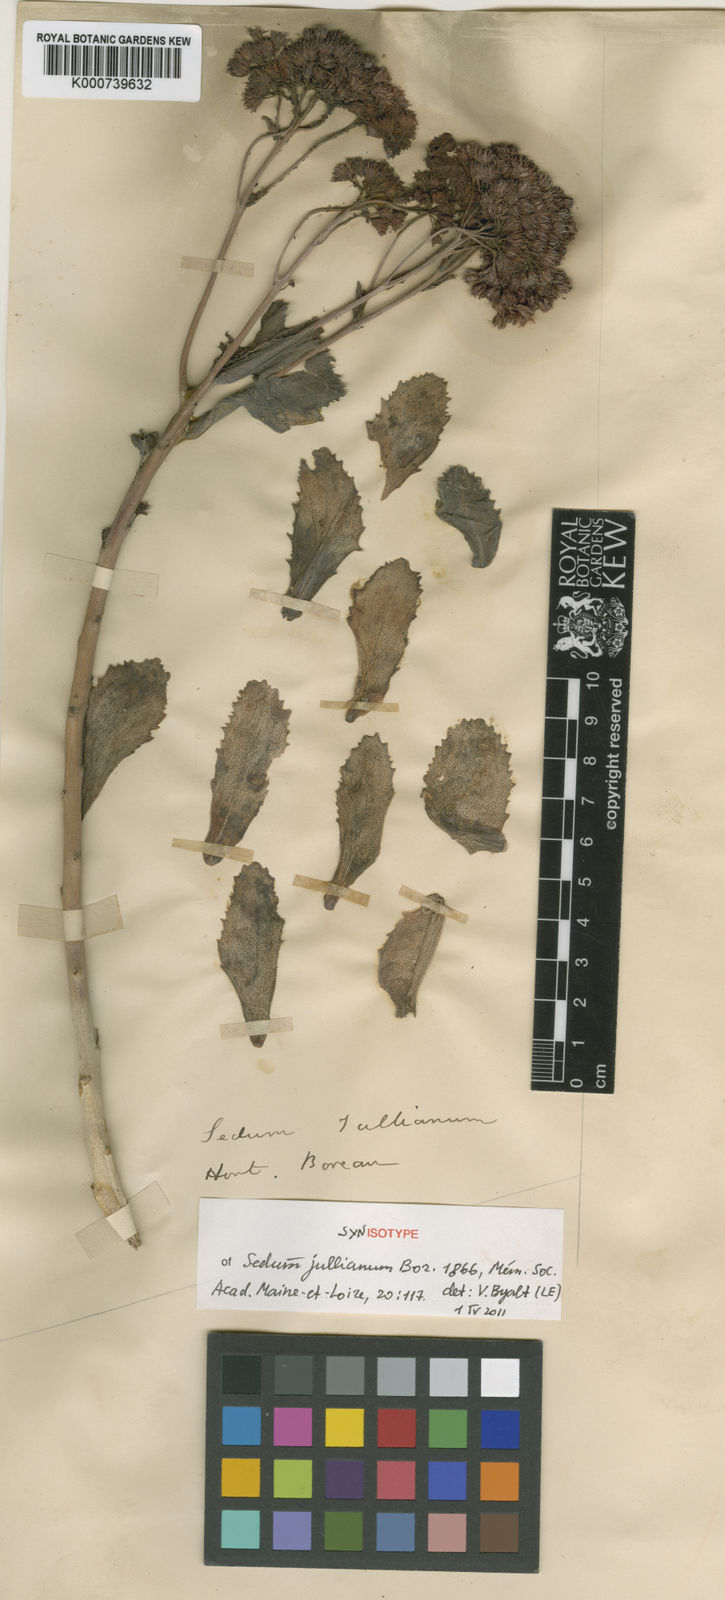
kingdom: Plantae
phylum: Tracheophyta
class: Magnoliopsida
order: Saxifragales
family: Crassulaceae
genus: Hylotelephium
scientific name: Hylotelephium jullianum
